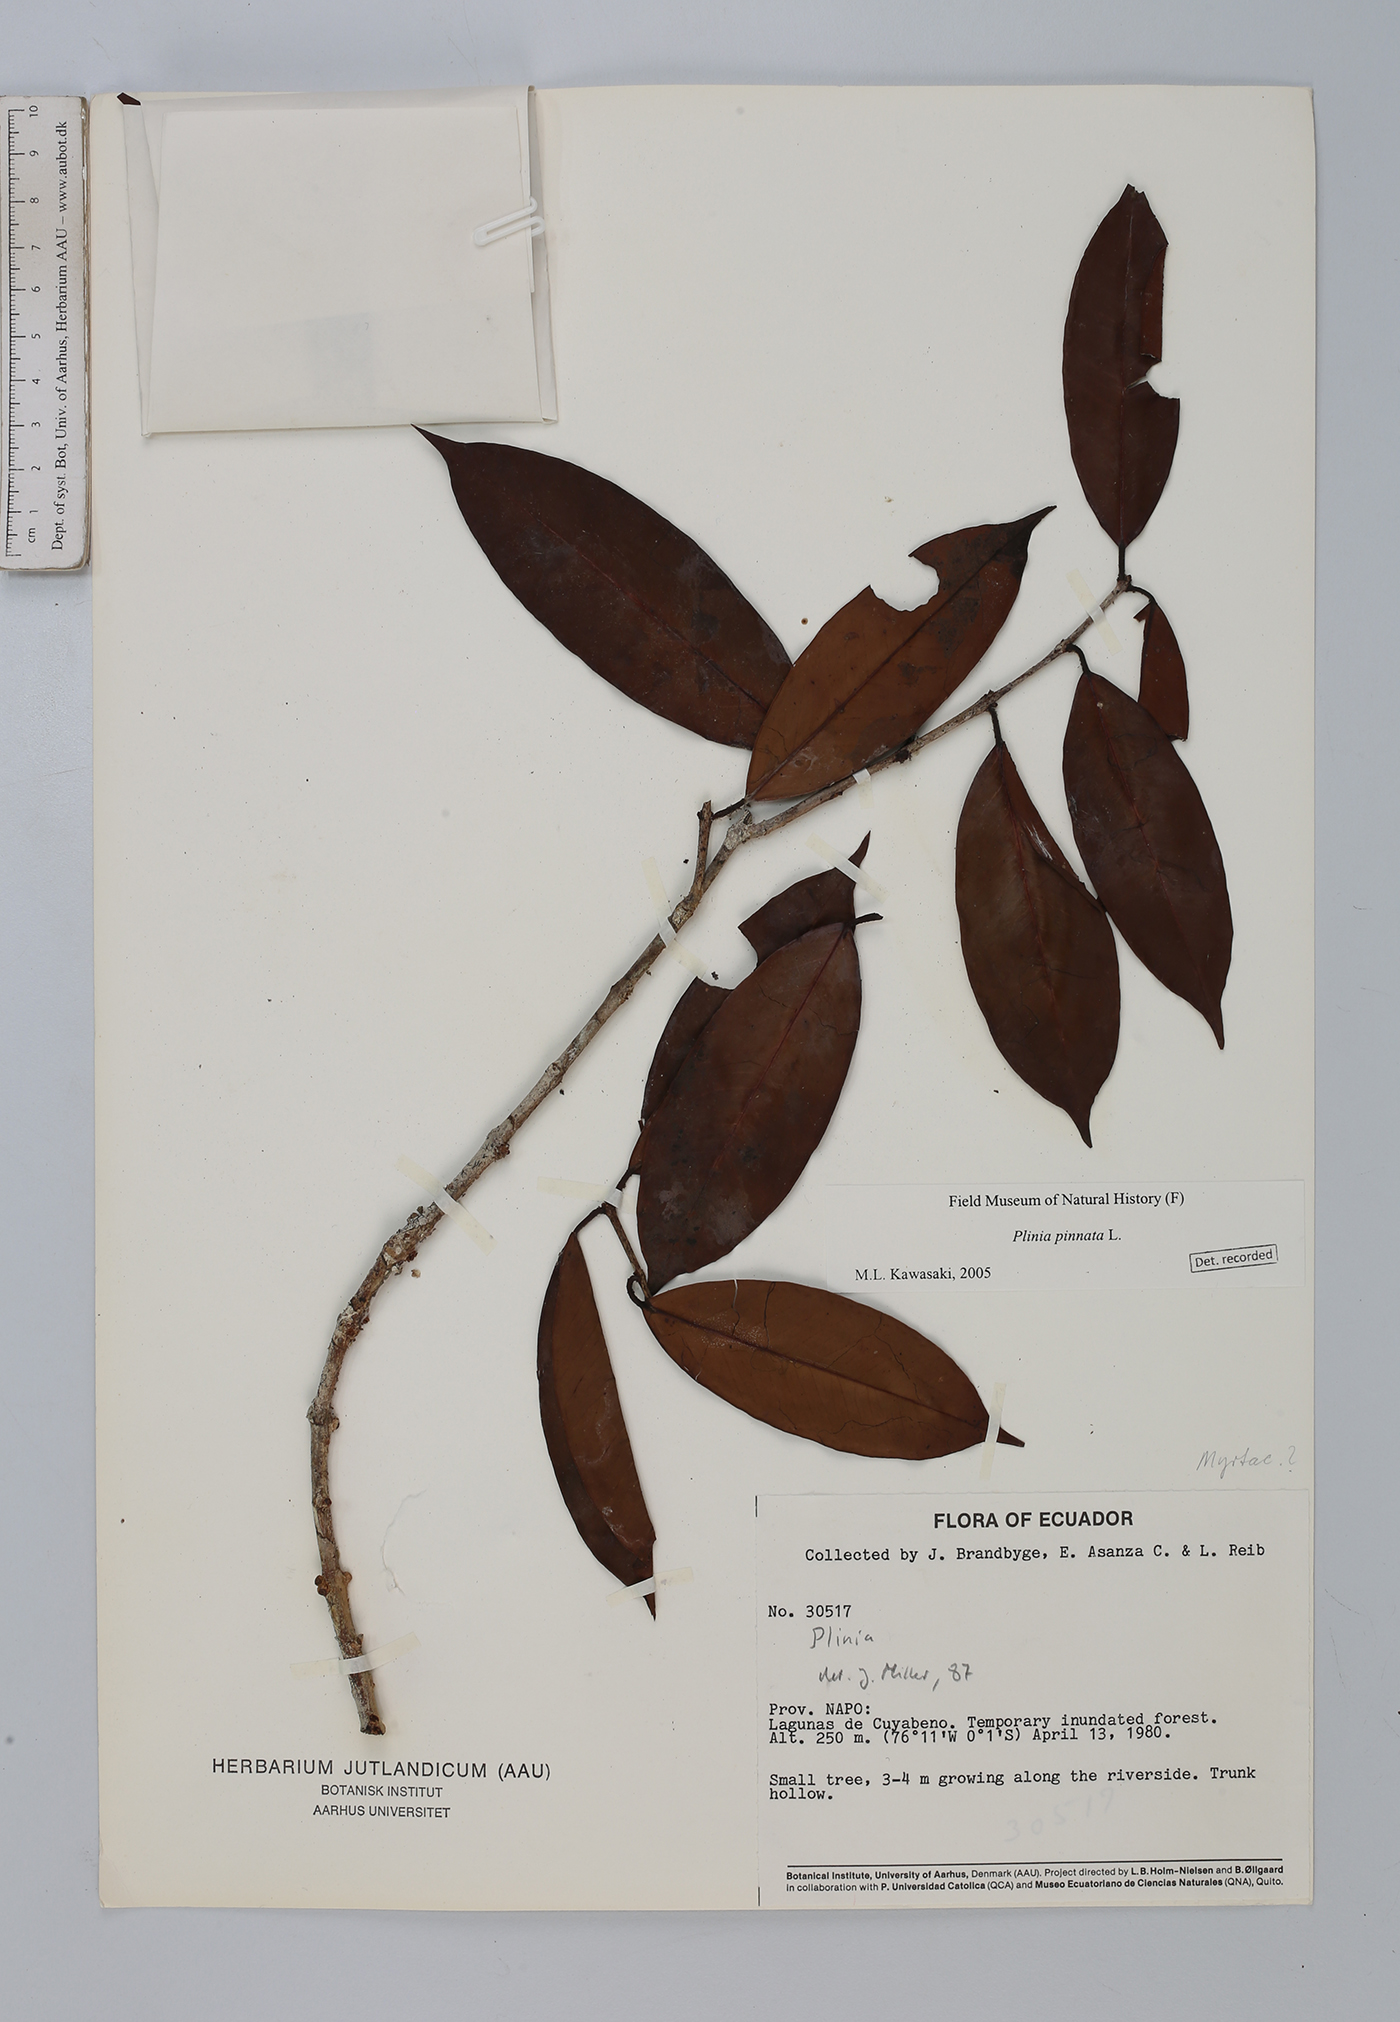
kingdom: Plantae
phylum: Tracheophyta
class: Magnoliopsida
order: Myrtales
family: Myrtaceae
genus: Plinia
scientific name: Plinia pinnata
